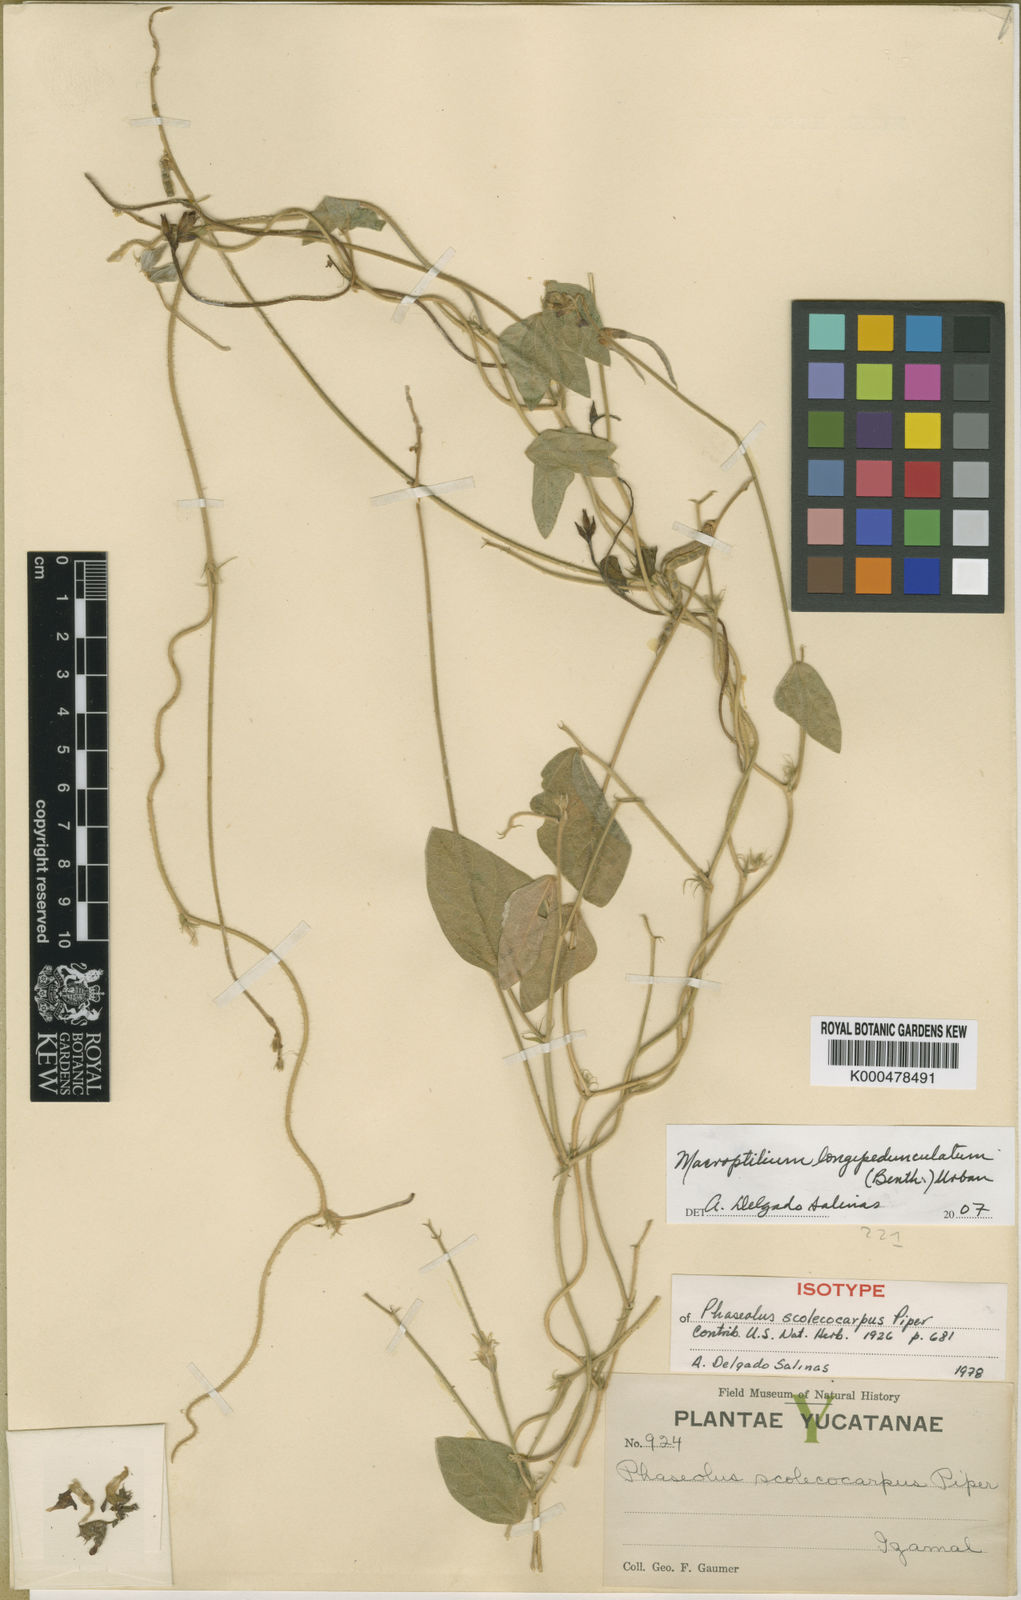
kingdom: Plantae
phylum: Tracheophyta
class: Magnoliopsida
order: Fabales
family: Fabaceae
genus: Macroptilium
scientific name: Macroptilium longepedunculatum
